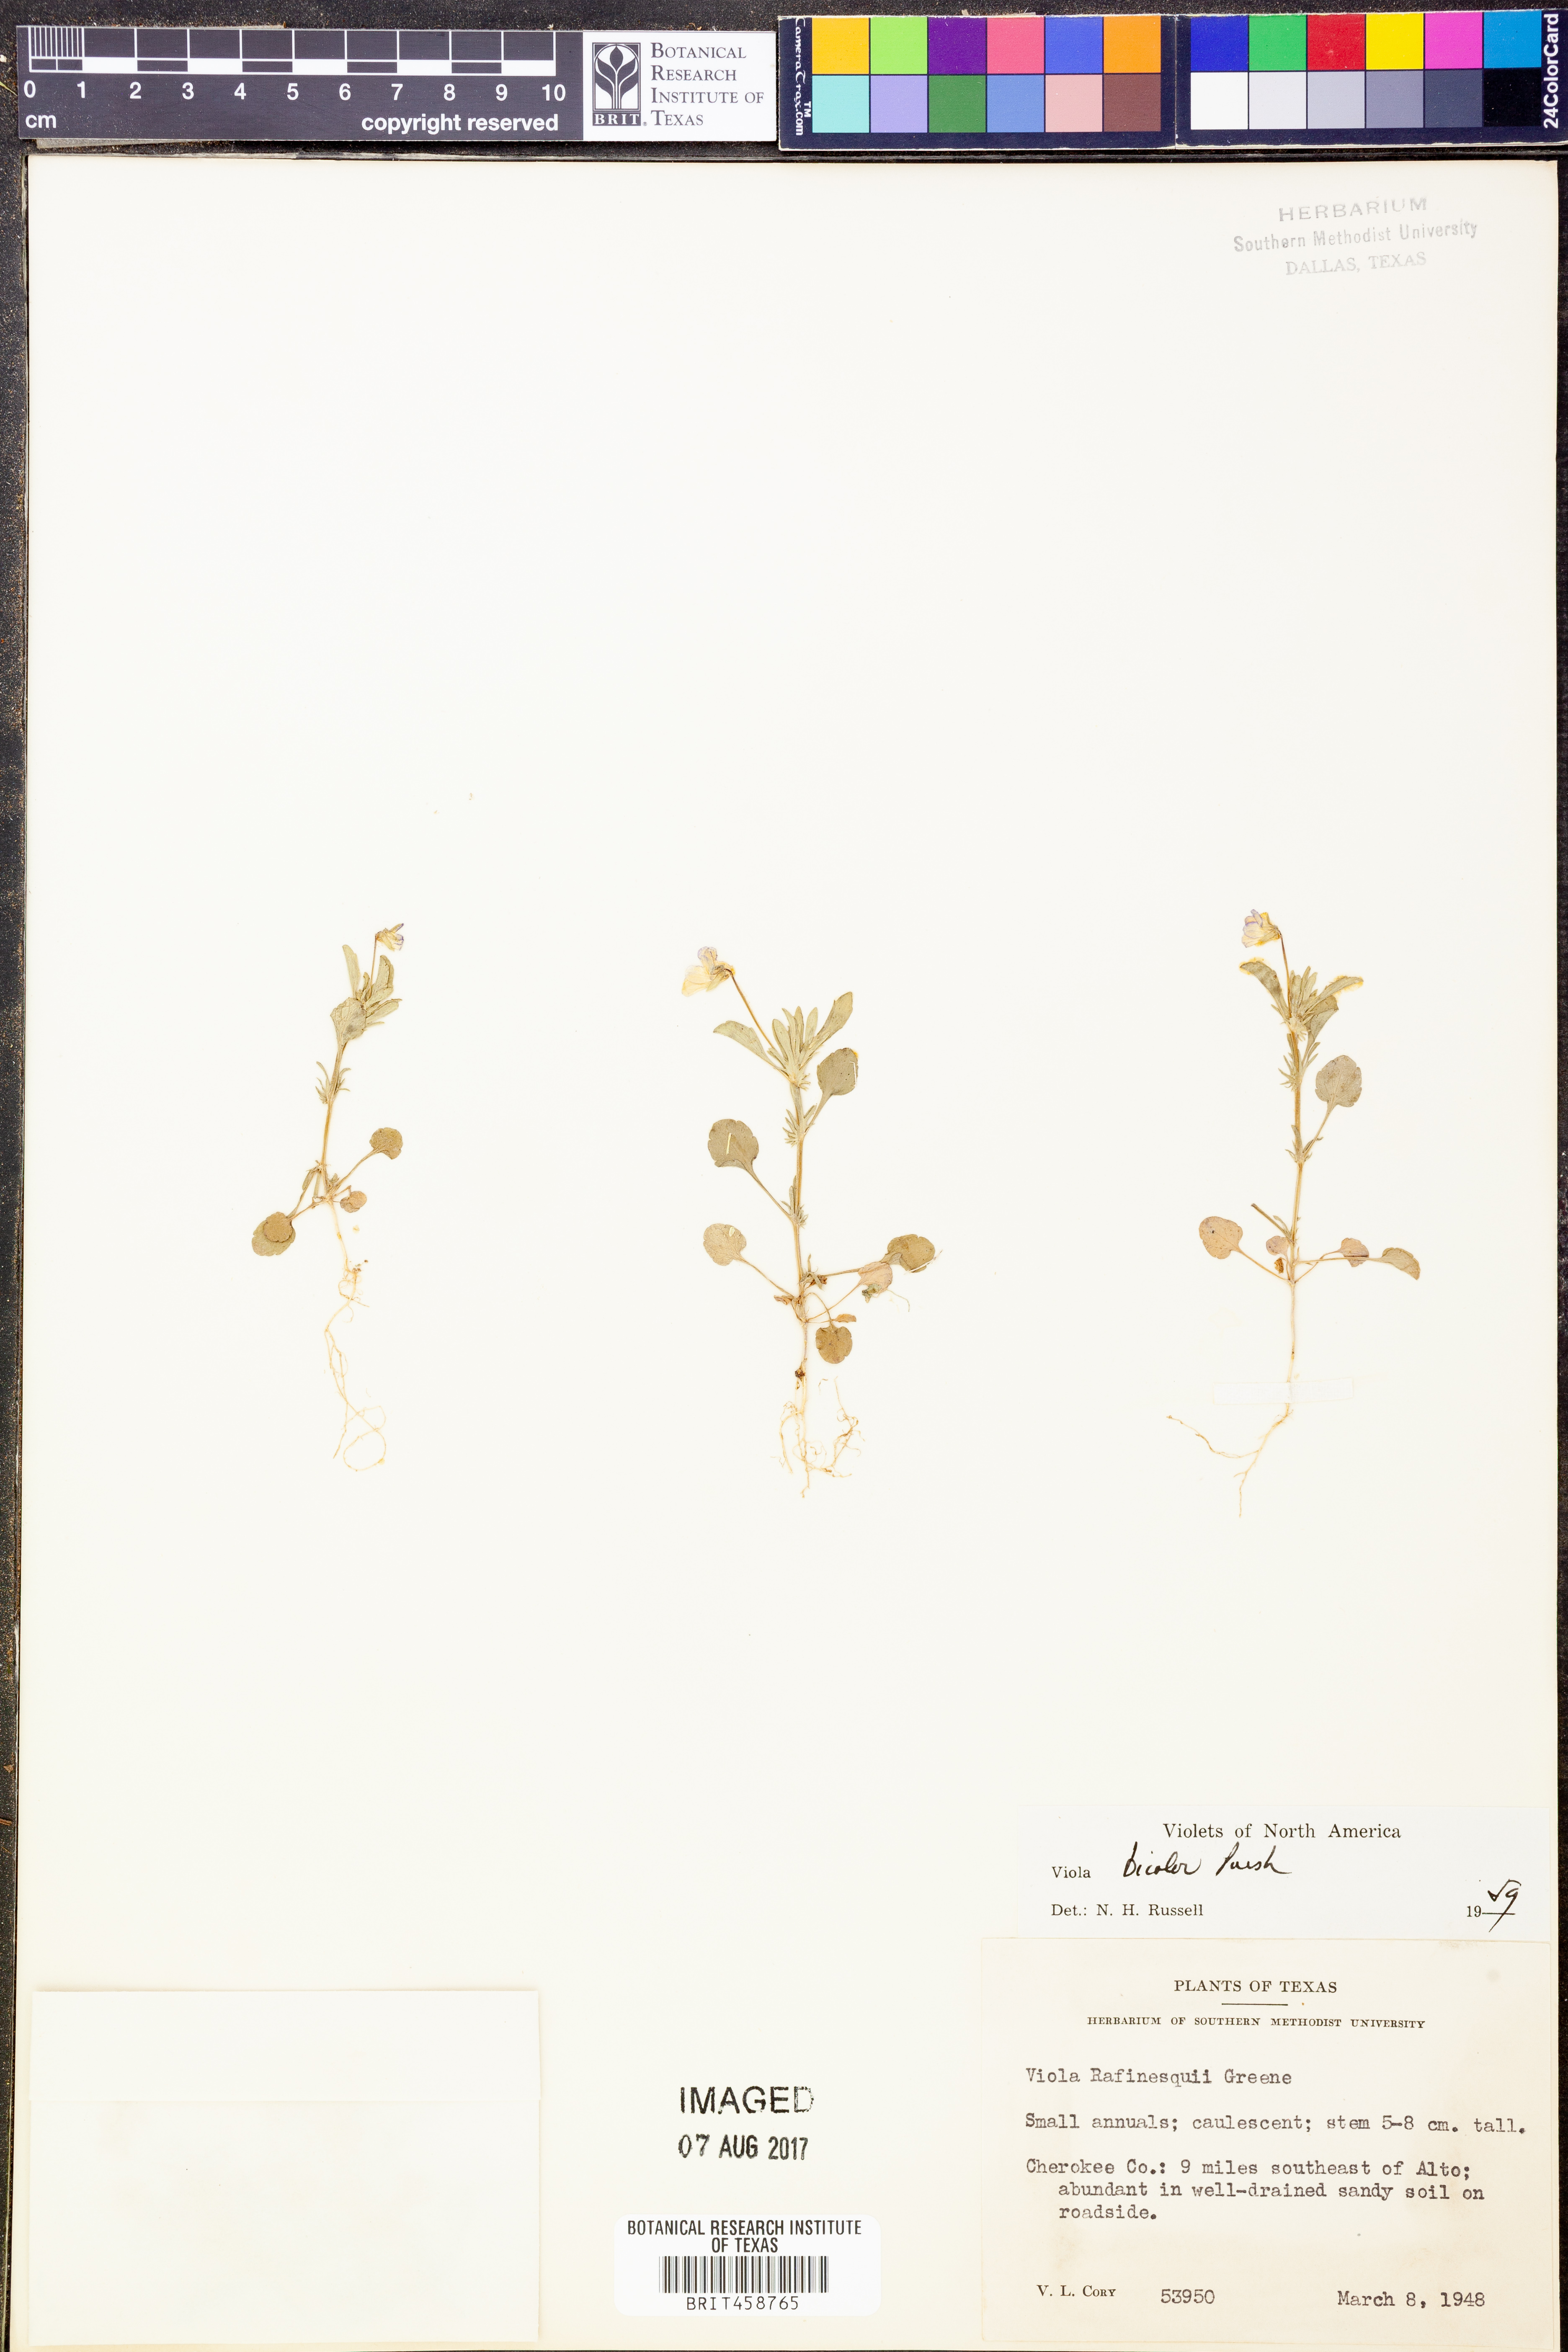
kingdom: Plantae
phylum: Tracheophyta
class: Magnoliopsida
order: Malpighiales
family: Violaceae
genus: Viola
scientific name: Viola rafinesquei
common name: American field pansy
